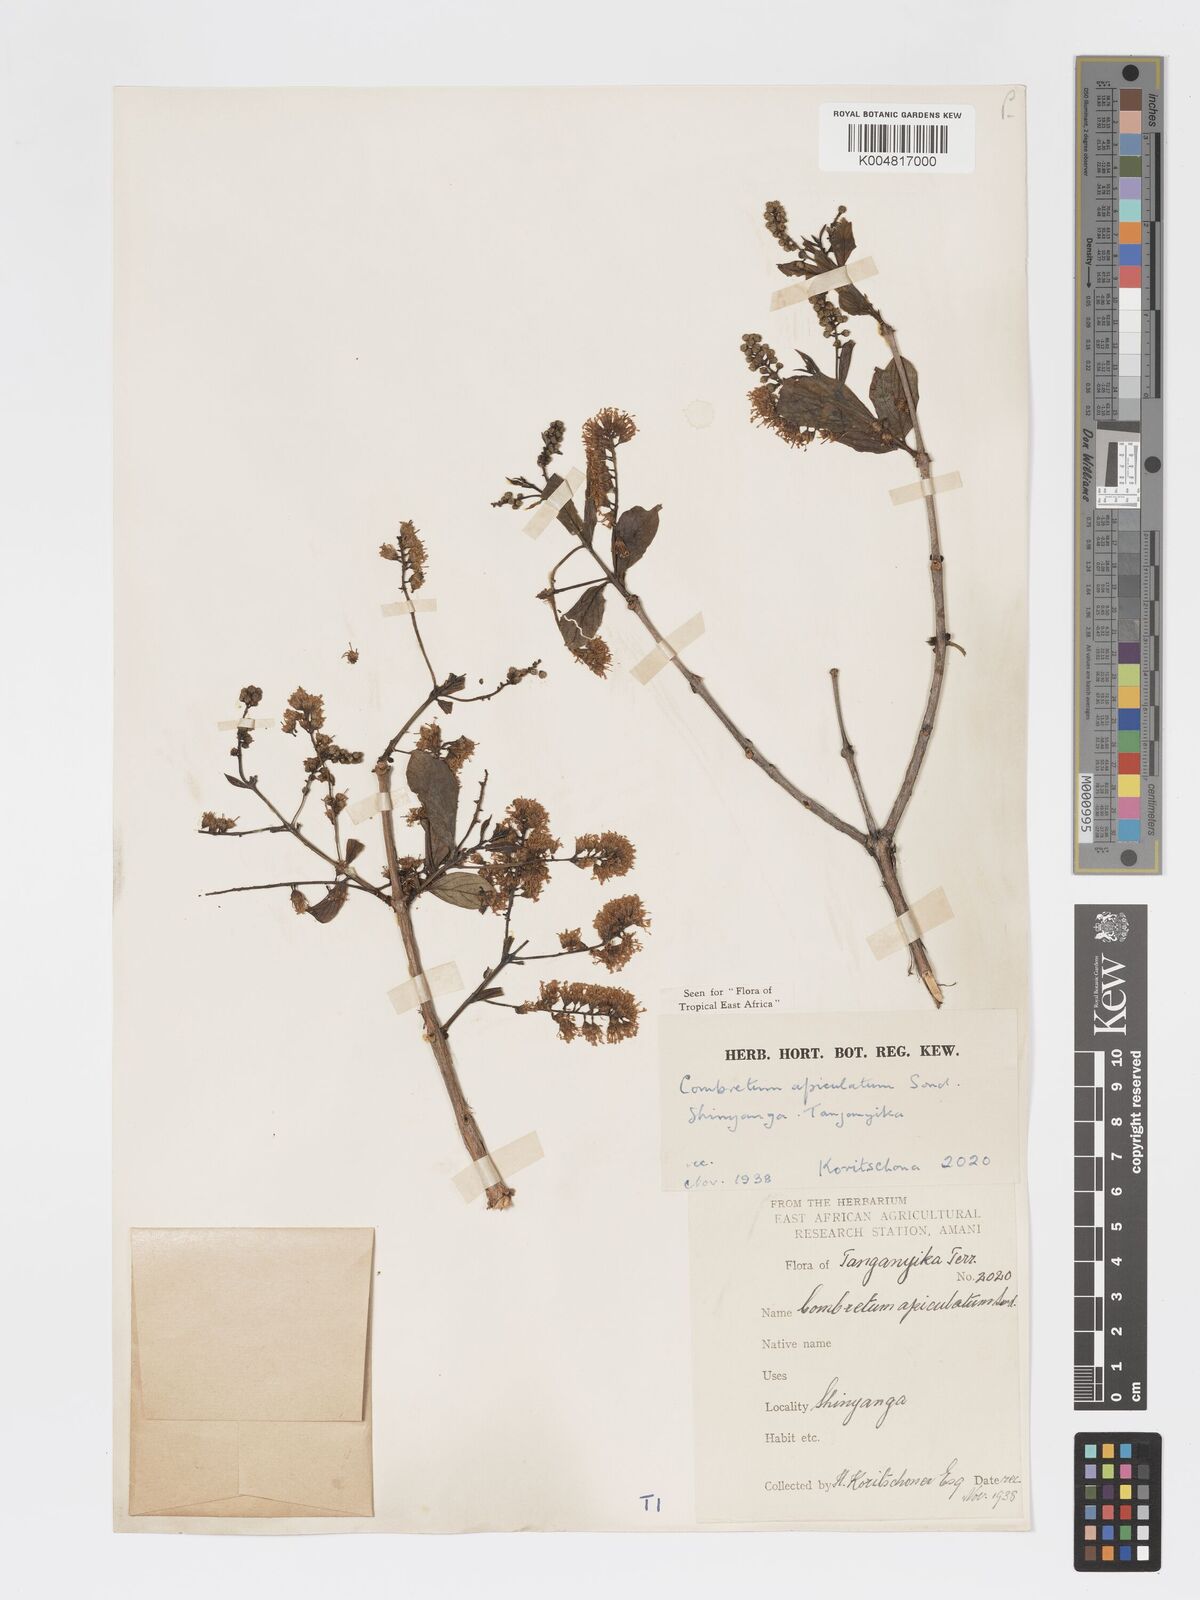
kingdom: Plantae
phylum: Tracheophyta
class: Magnoliopsida
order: Myrtales
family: Combretaceae
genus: Combretum
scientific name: Combretum apiculatum
